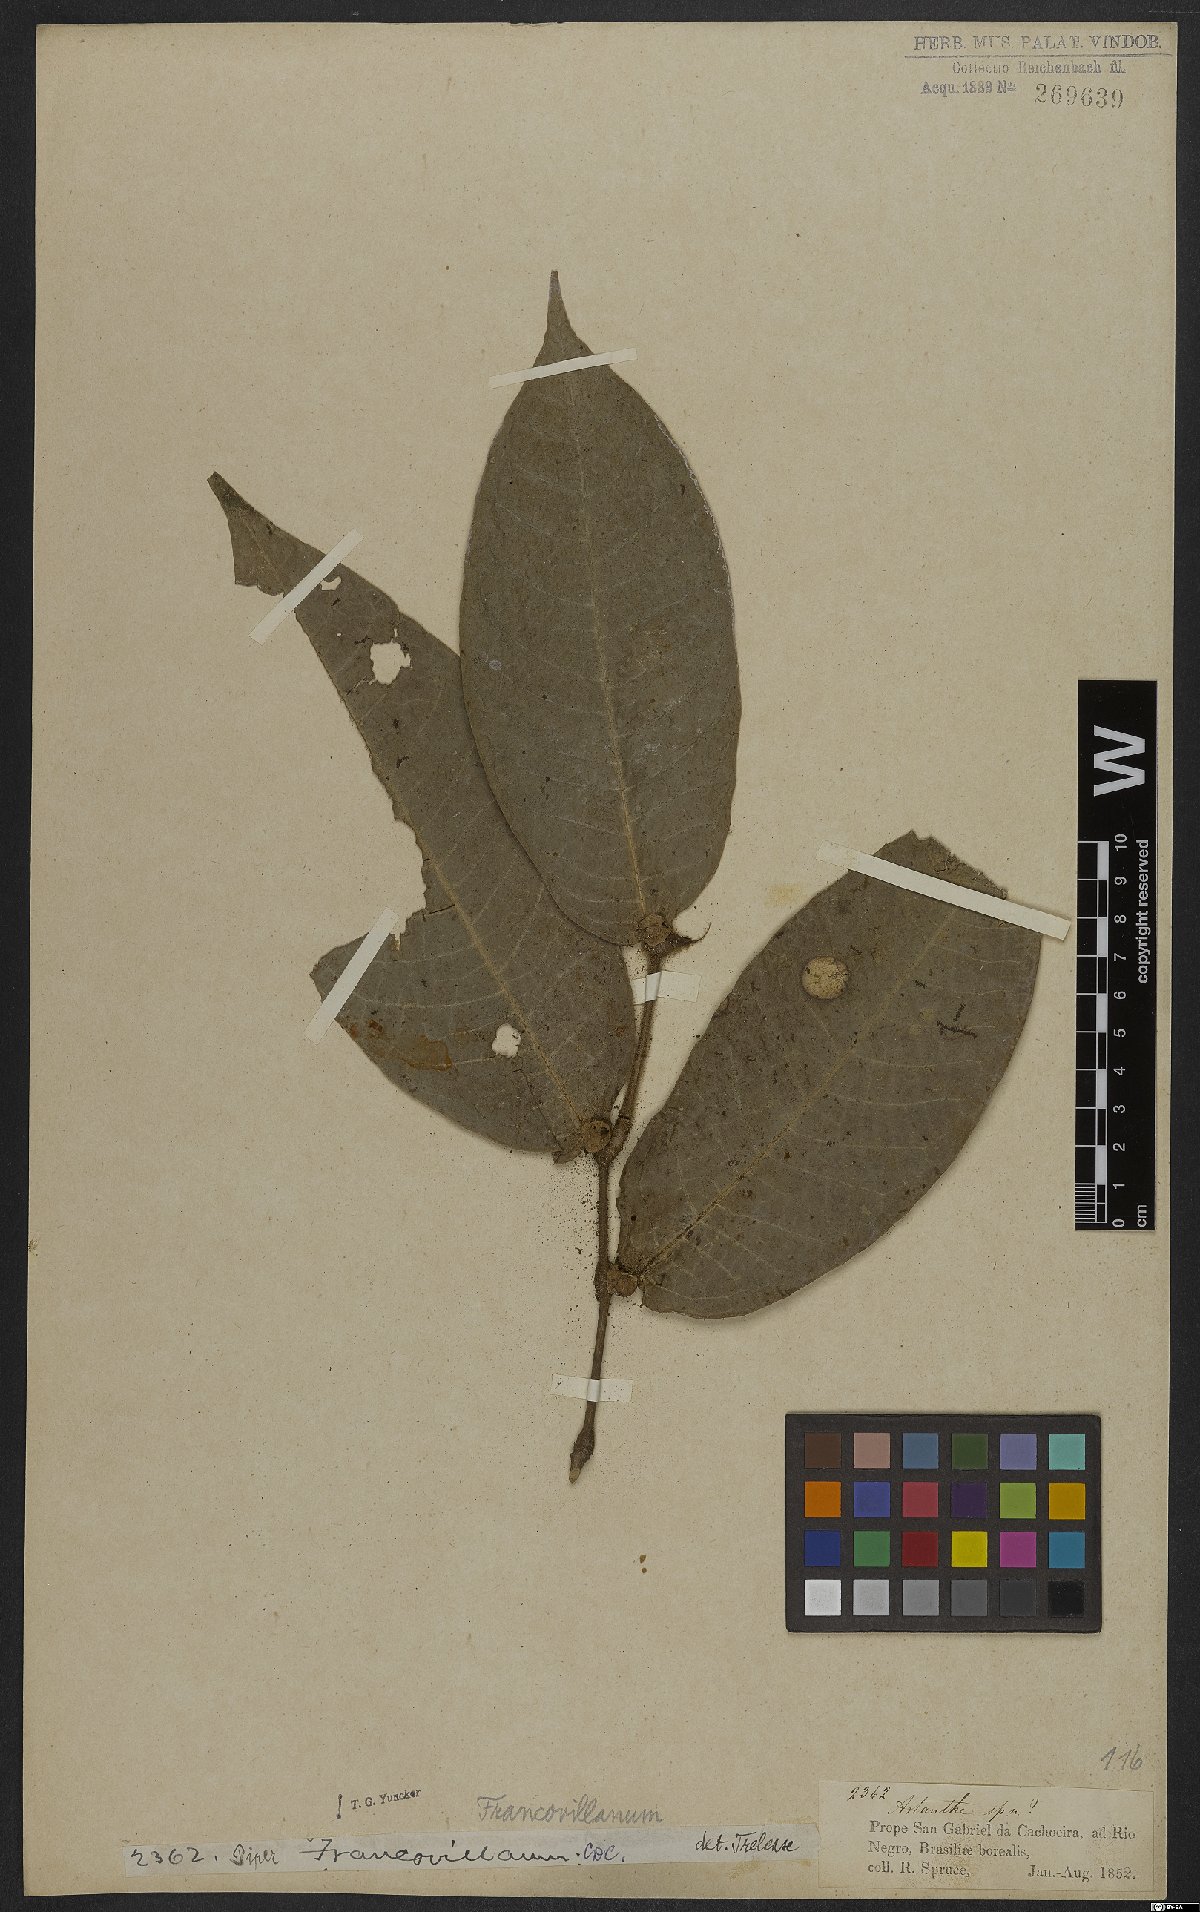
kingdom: Plantae
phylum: Tracheophyta
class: Magnoliopsida
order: Piperales
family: Piperaceae
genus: Piper
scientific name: Piper francovilleanum
